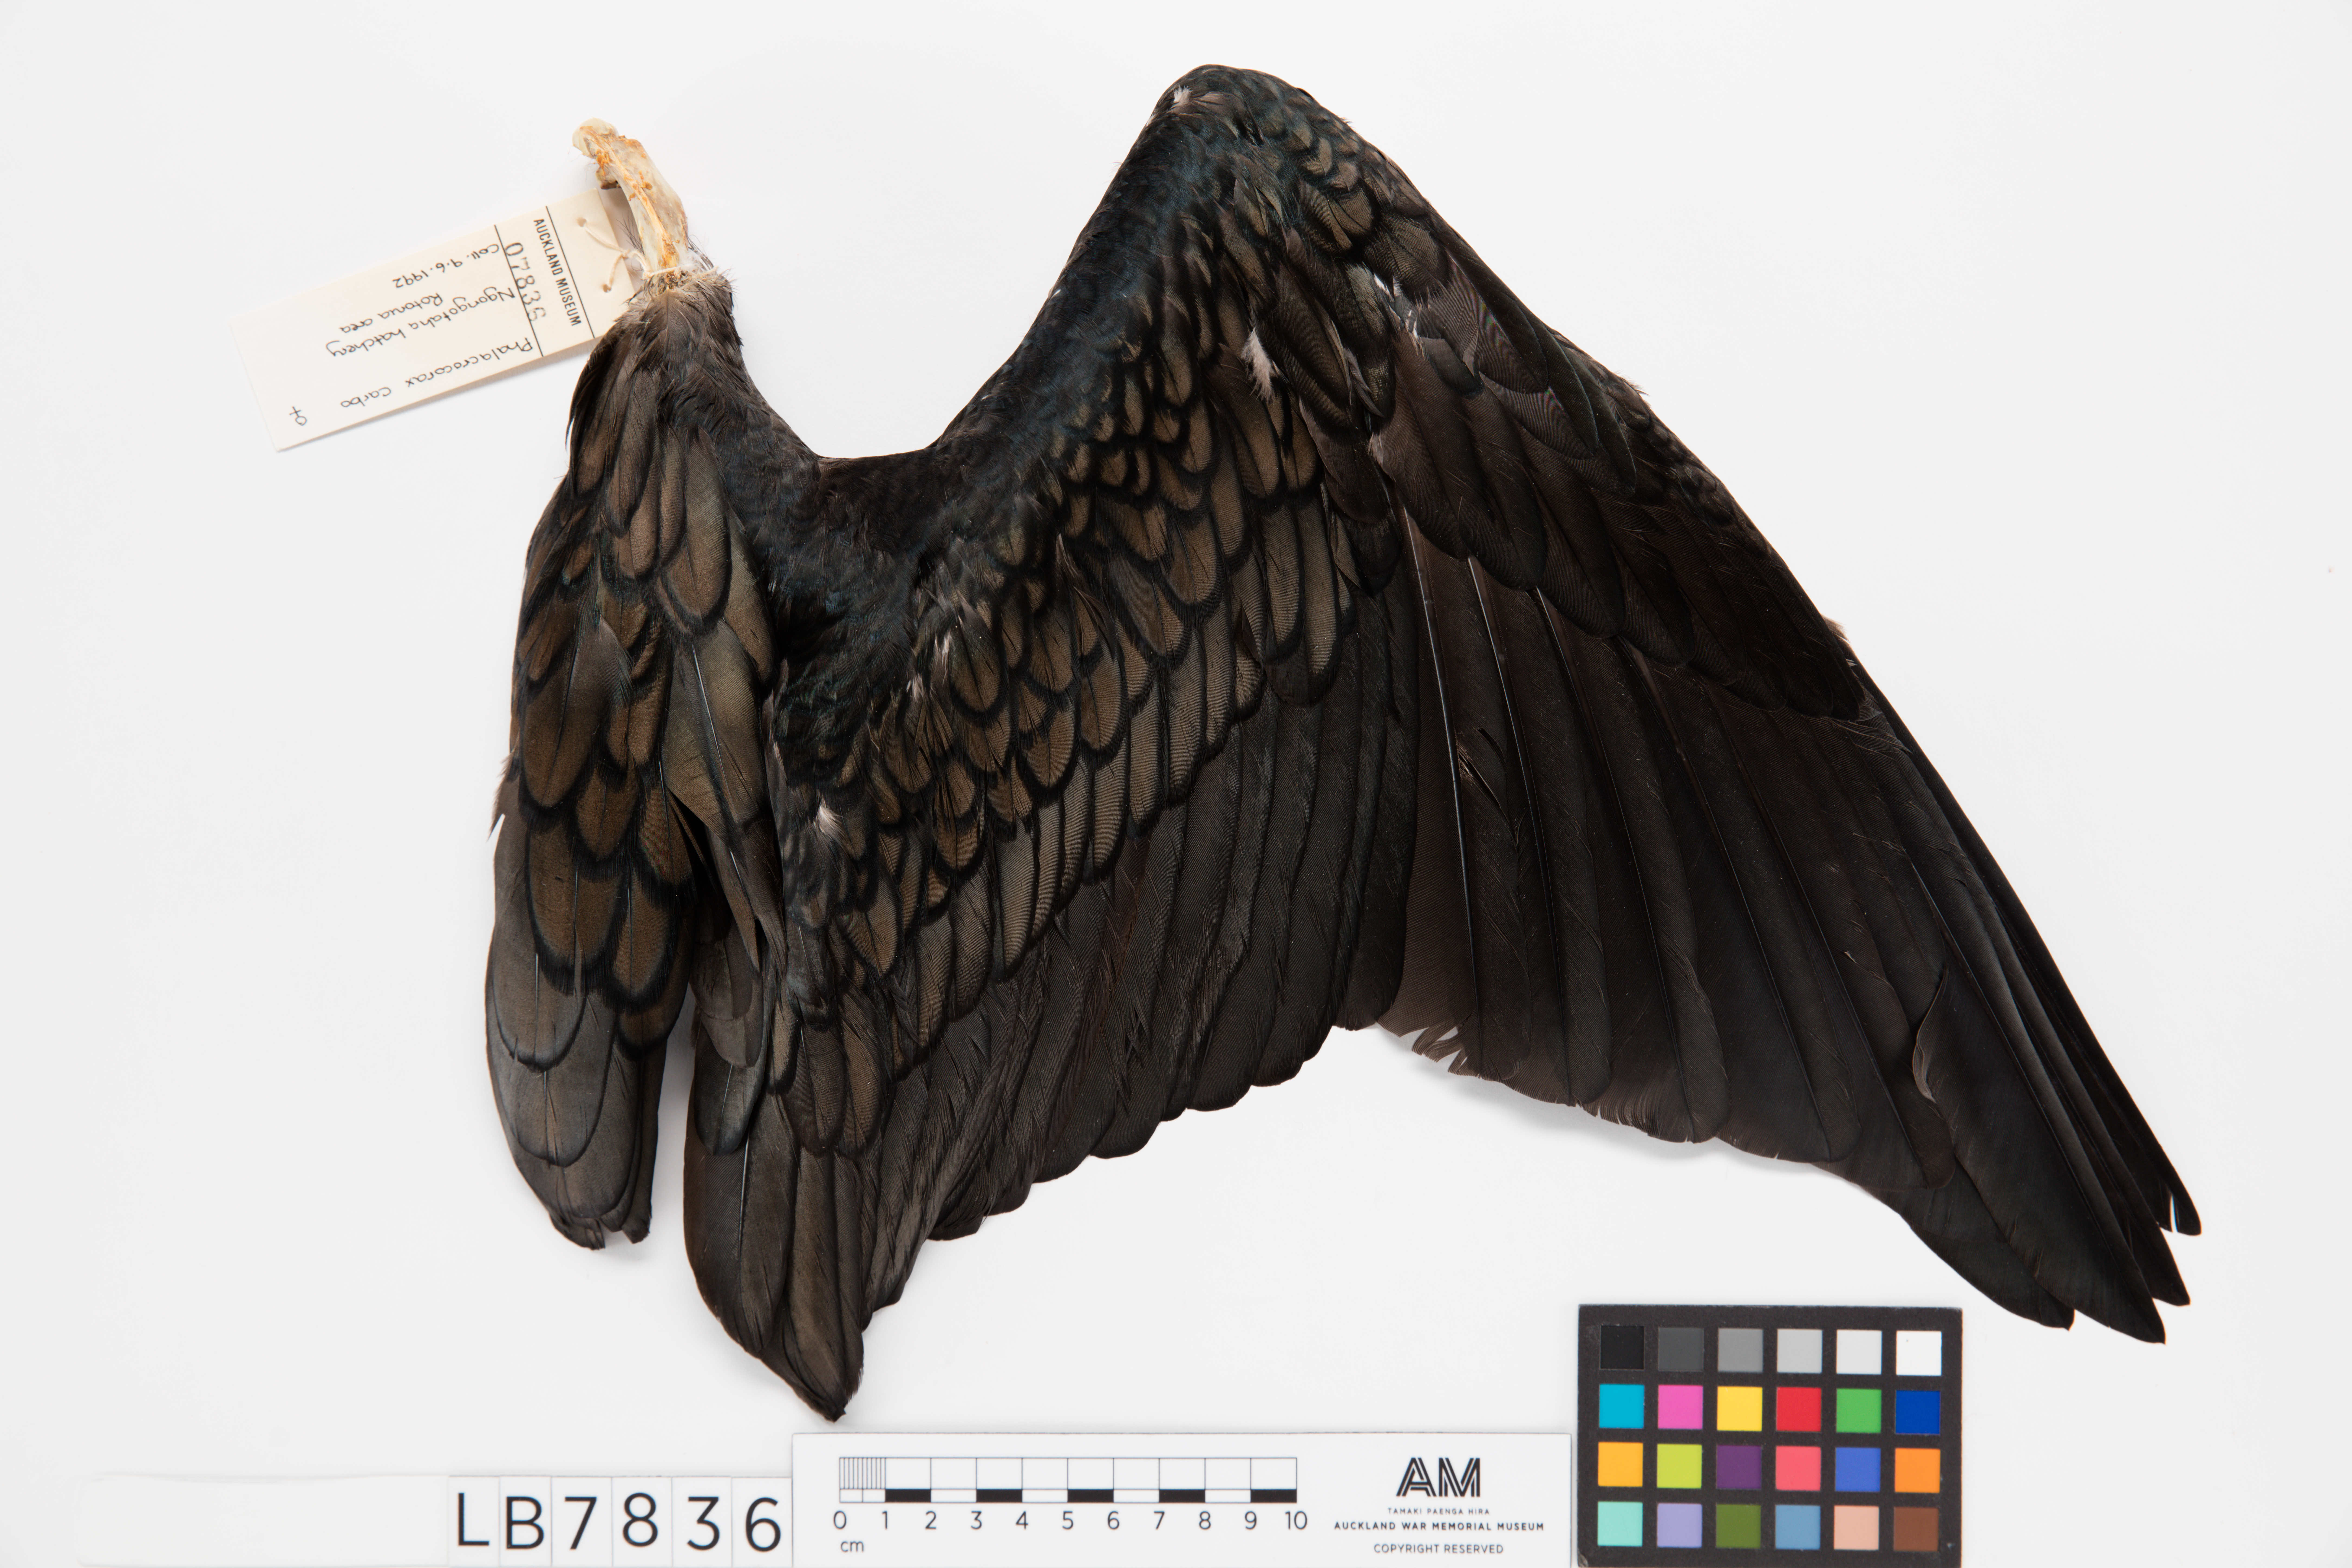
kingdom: Animalia
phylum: Chordata
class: Aves
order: Suliformes
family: Phalacrocoracidae
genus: Phalacrocorax
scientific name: Phalacrocorax carbo
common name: Great cormorant
